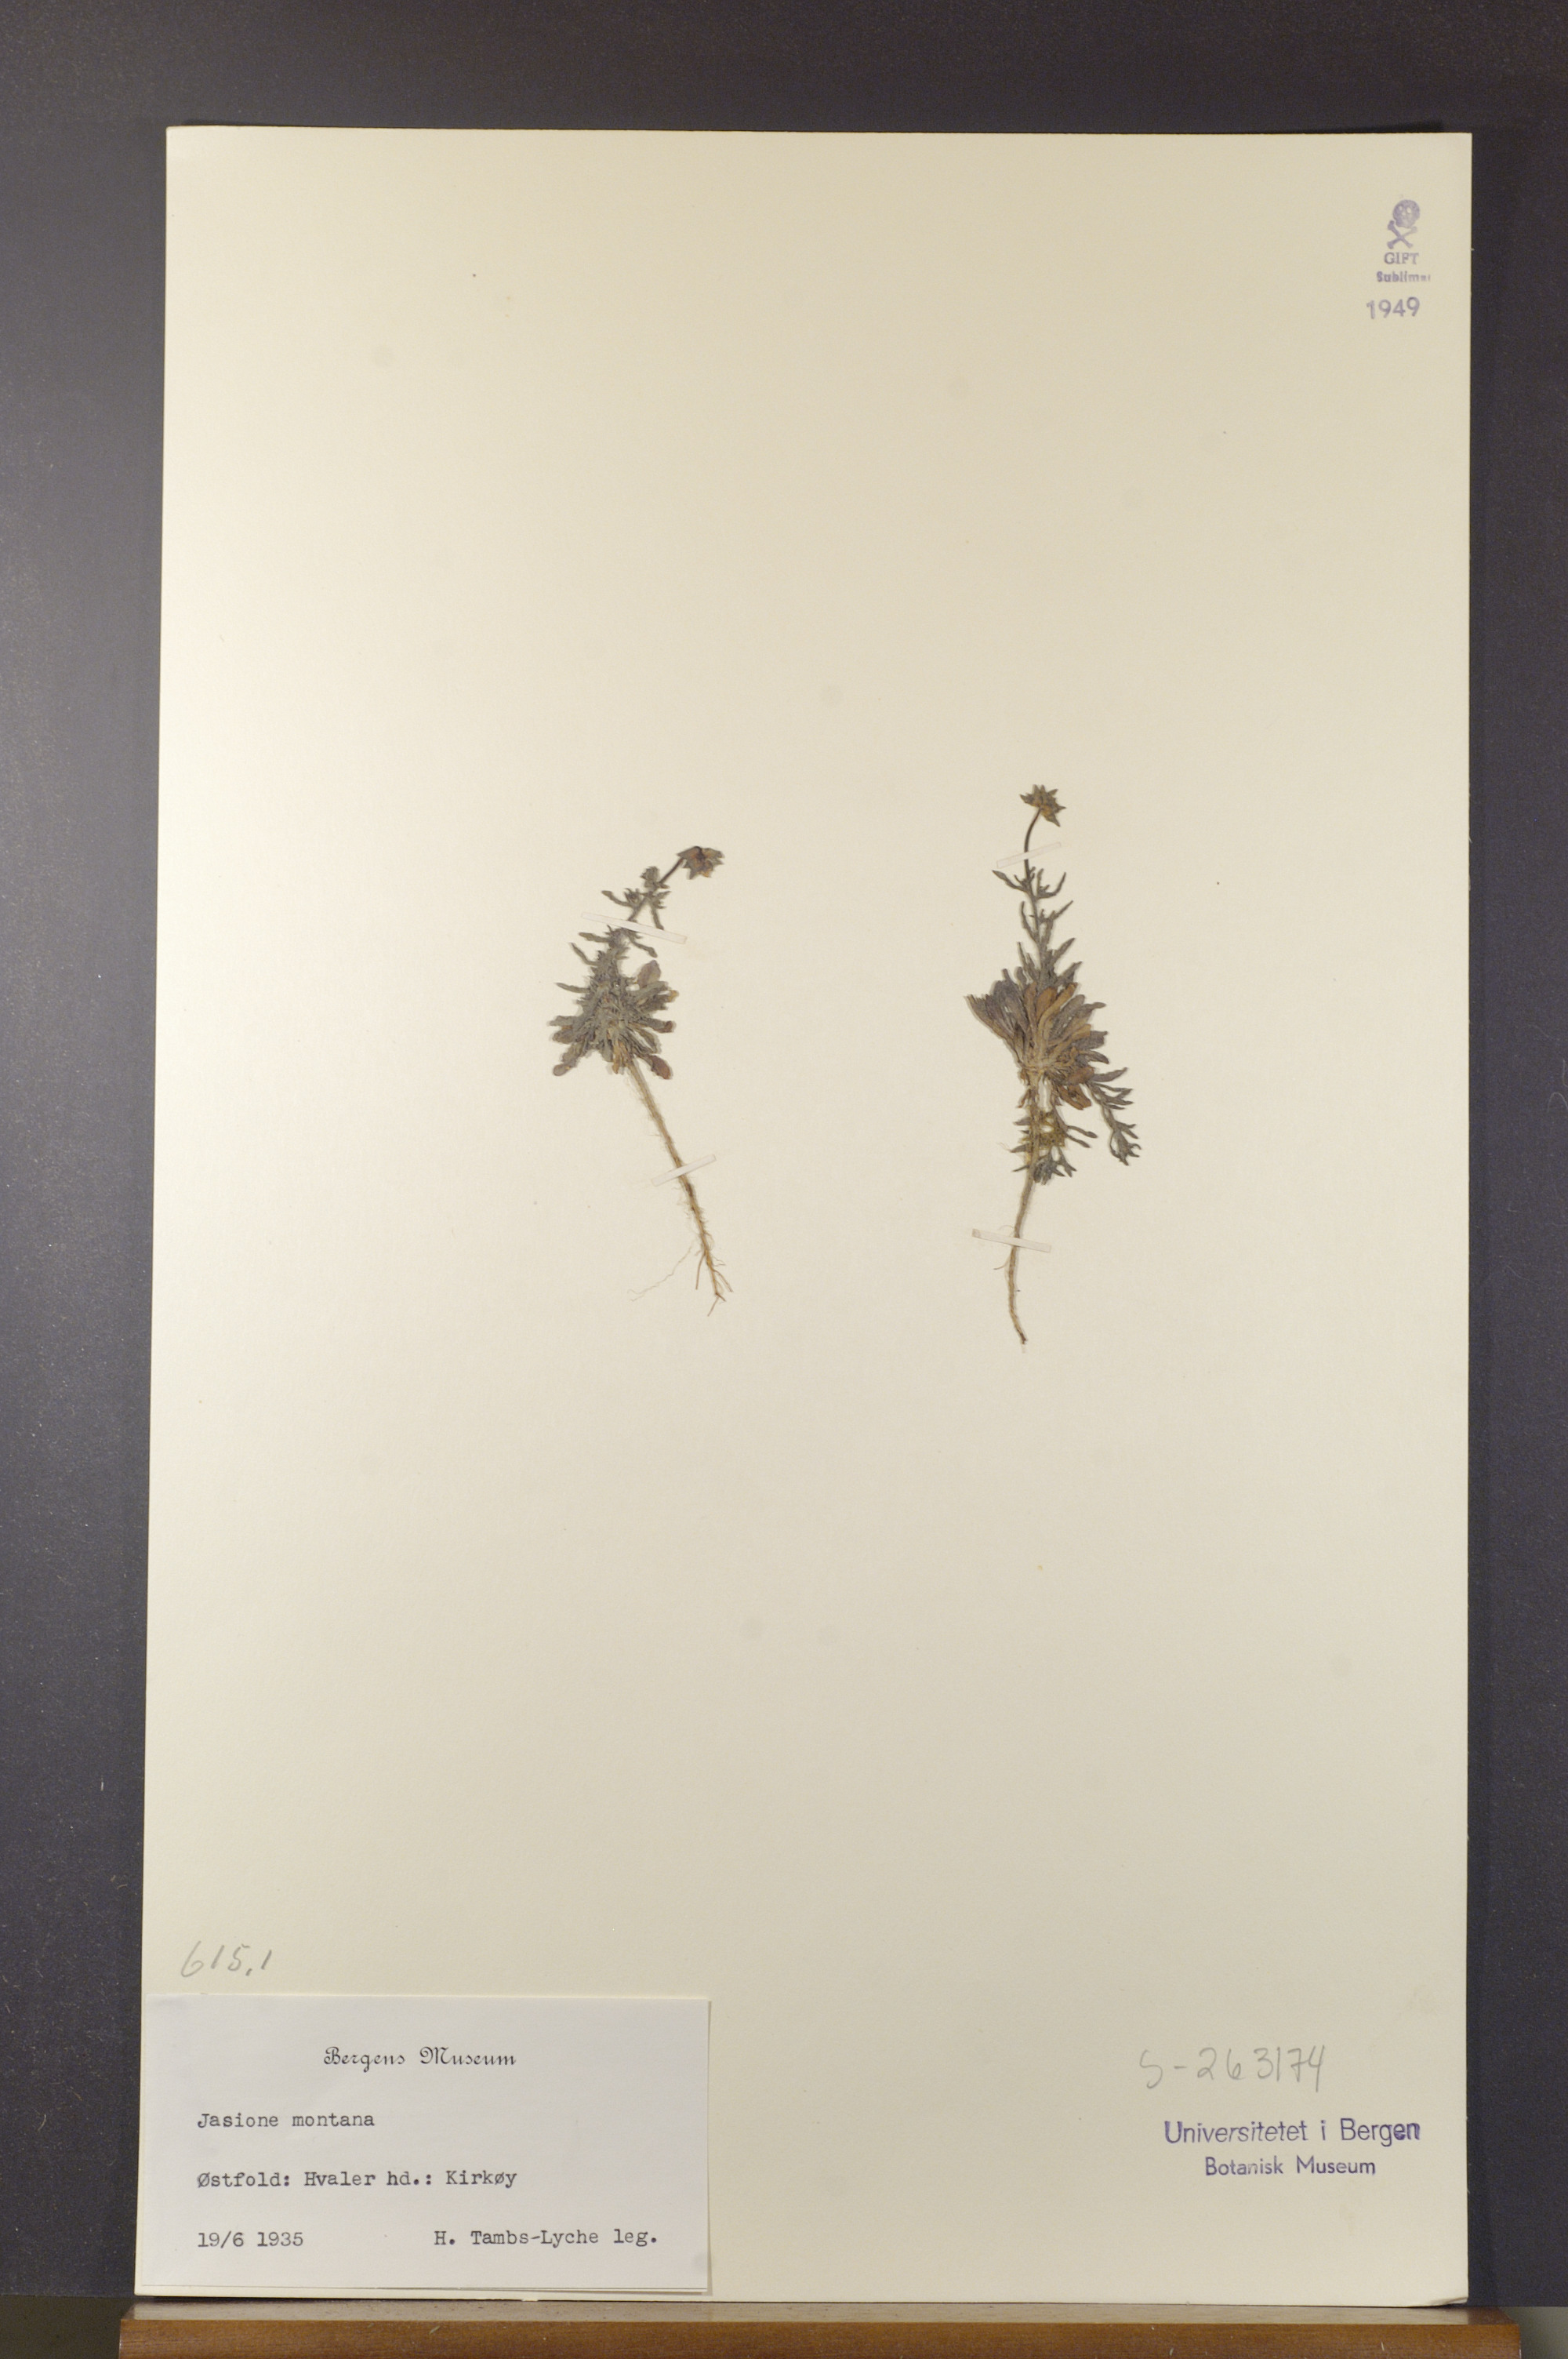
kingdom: Plantae
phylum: Tracheophyta
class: Magnoliopsida
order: Asterales
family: Campanulaceae
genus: Jasione
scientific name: Jasione montana
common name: Sheep's-bit
